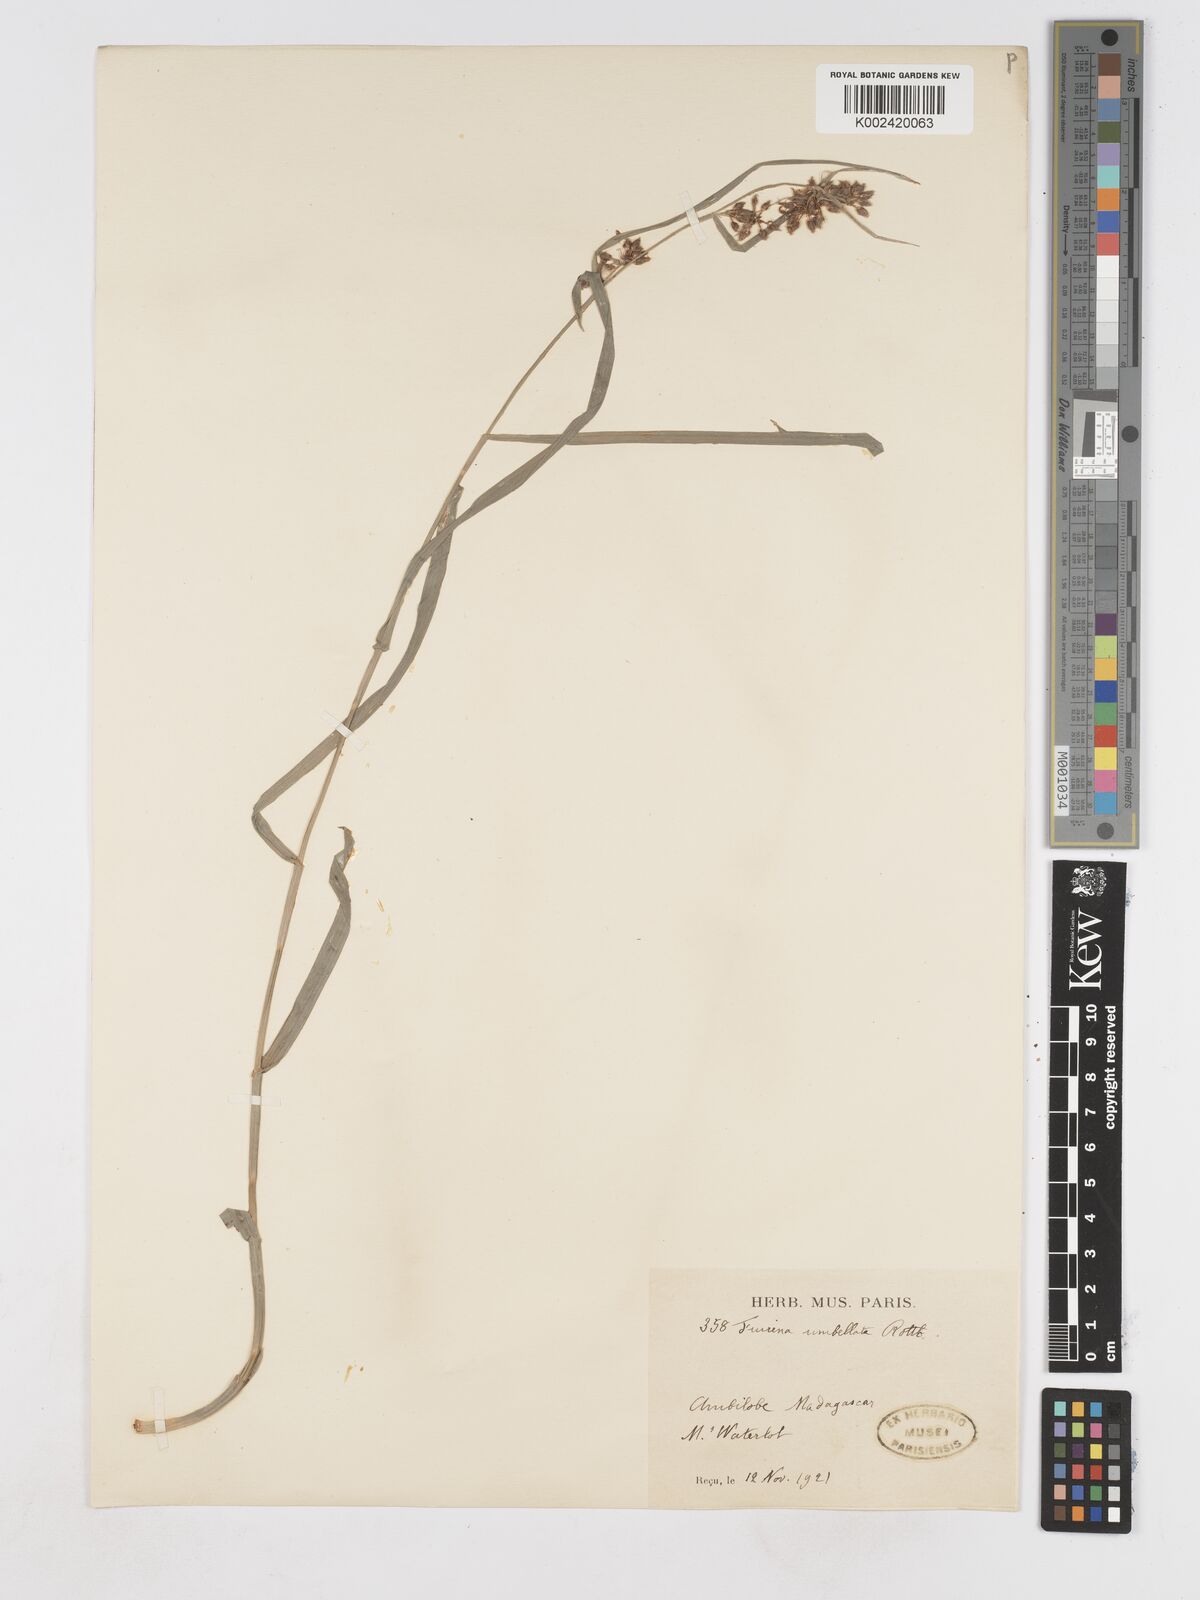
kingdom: Plantae
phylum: Tracheophyta
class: Liliopsida
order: Poales
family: Cyperaceae
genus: Fuirena
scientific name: Fuirena umbellata
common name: Yefen
